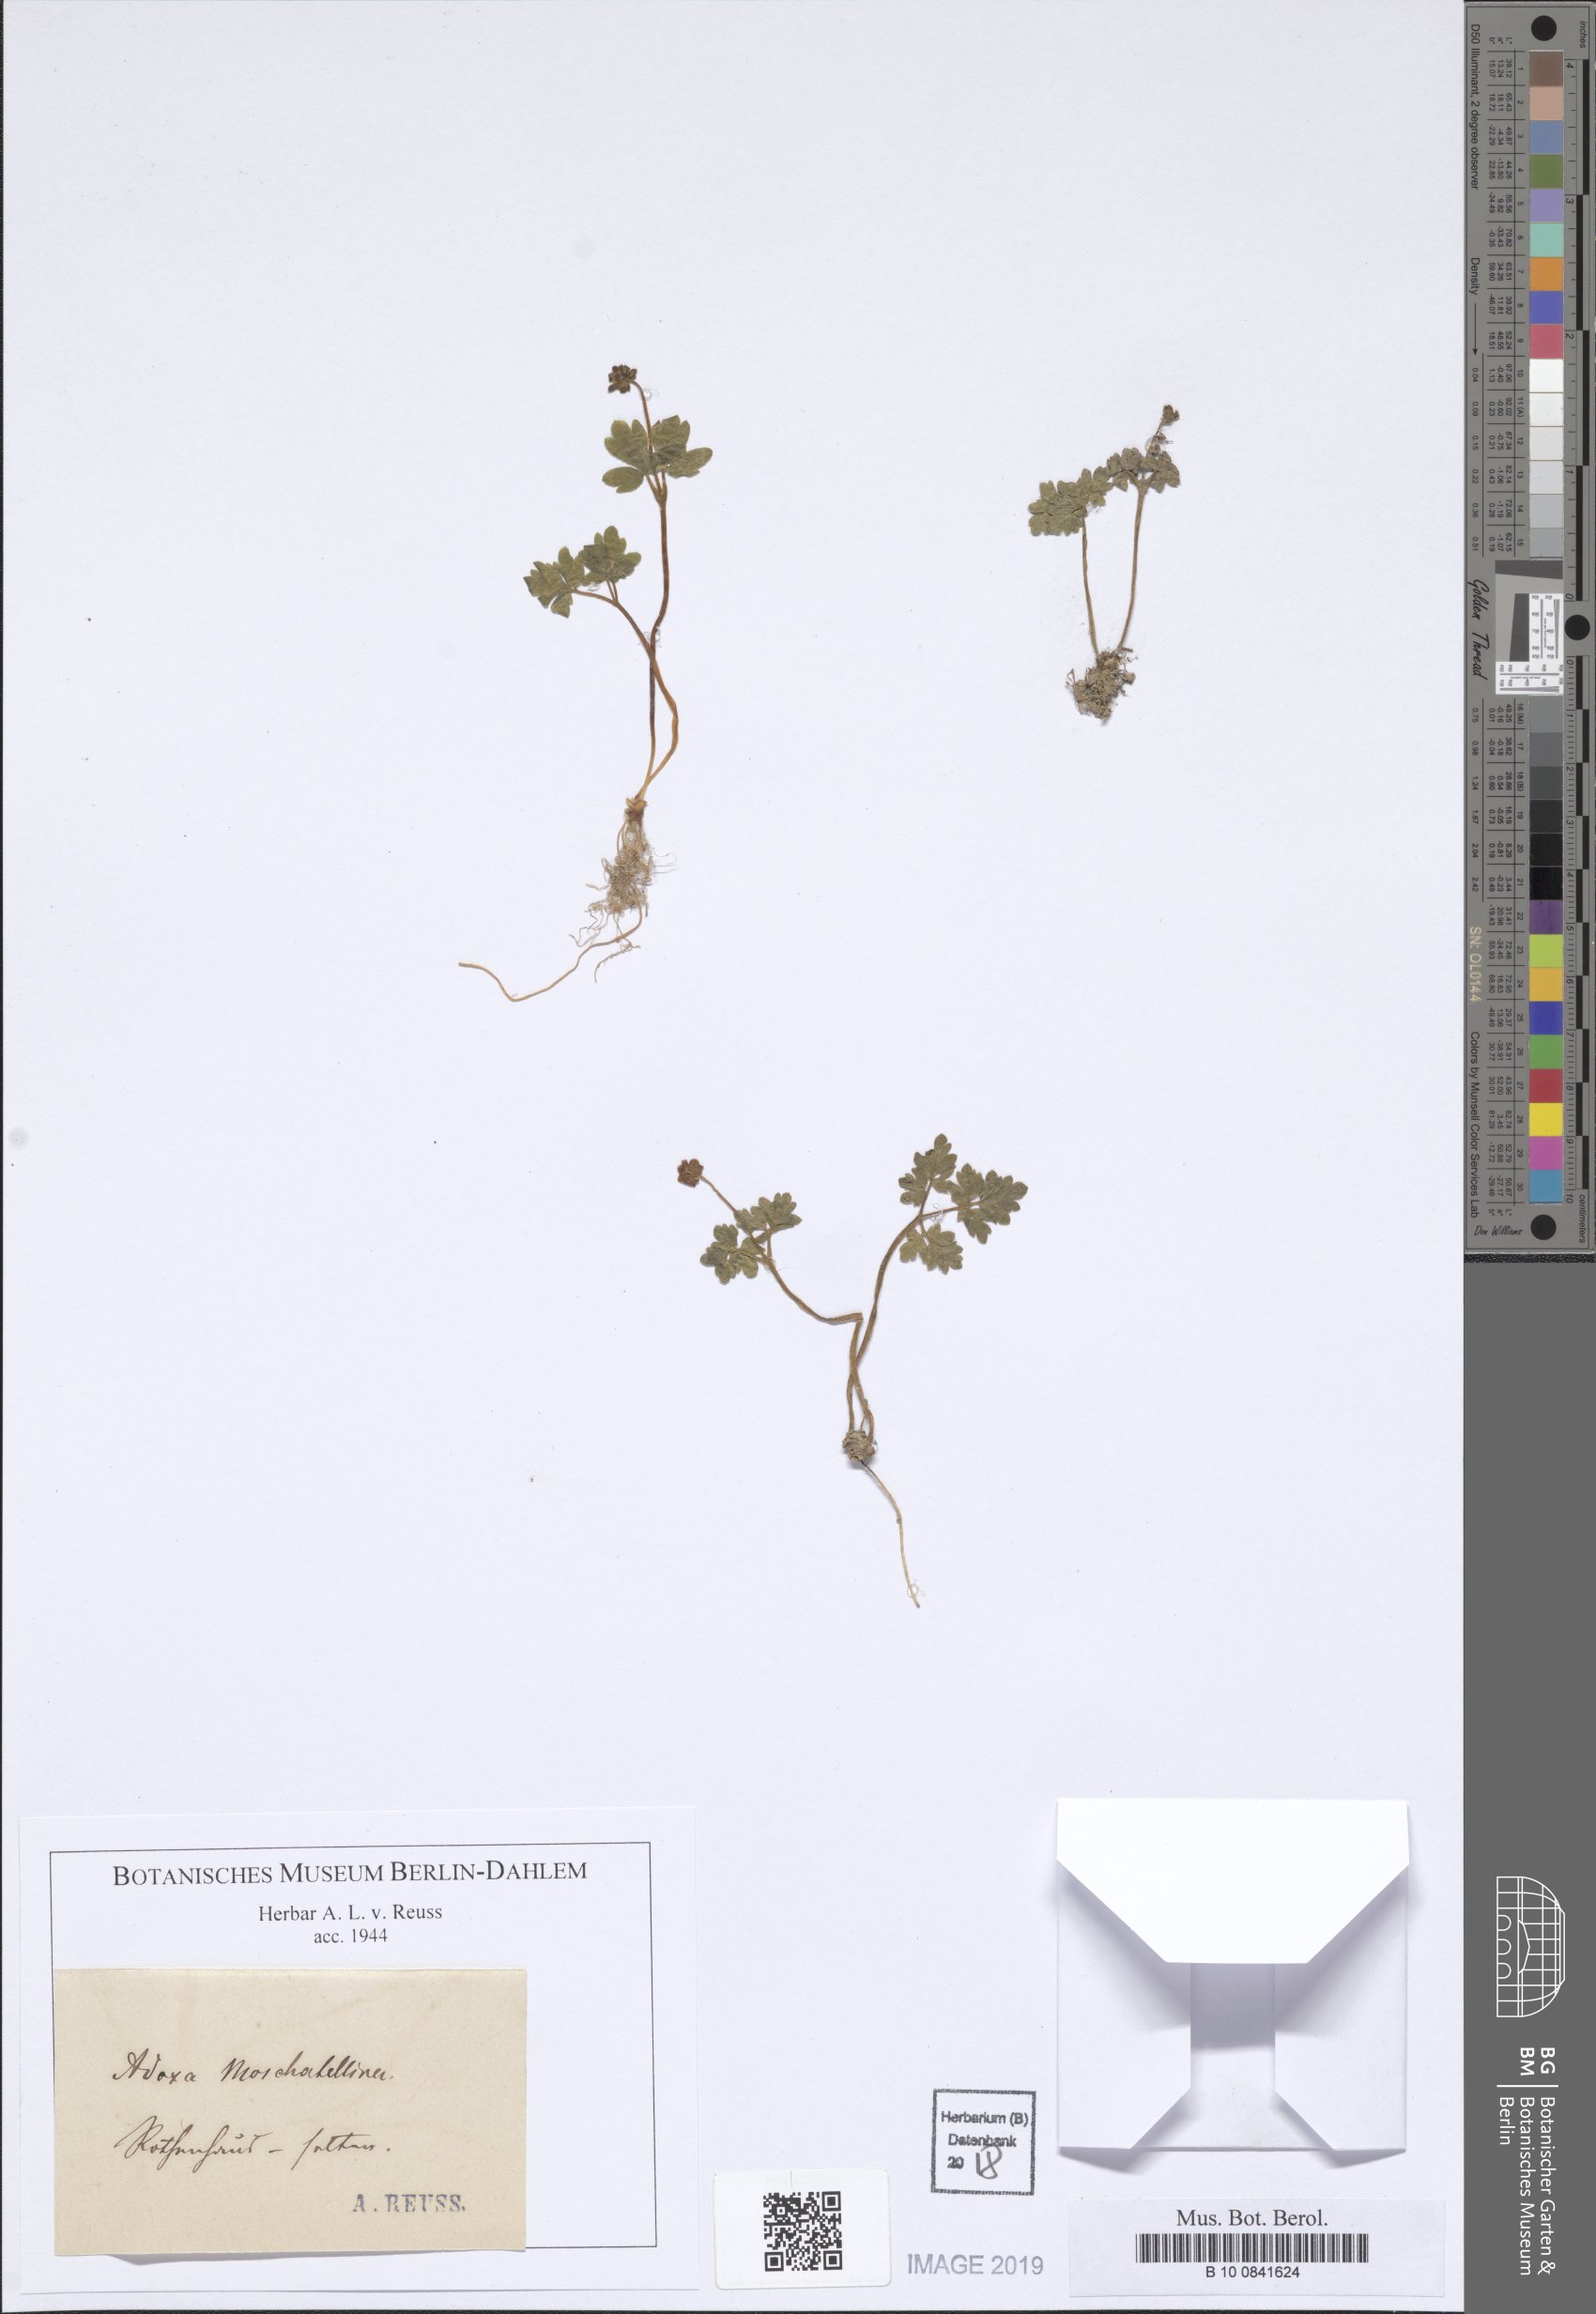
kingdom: Plantae
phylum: Tracheophyta
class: Magnoliopsida
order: Dipsacales
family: Viburnaceae
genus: Adoxa
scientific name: Adoxa moschatellina
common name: Moschatel
